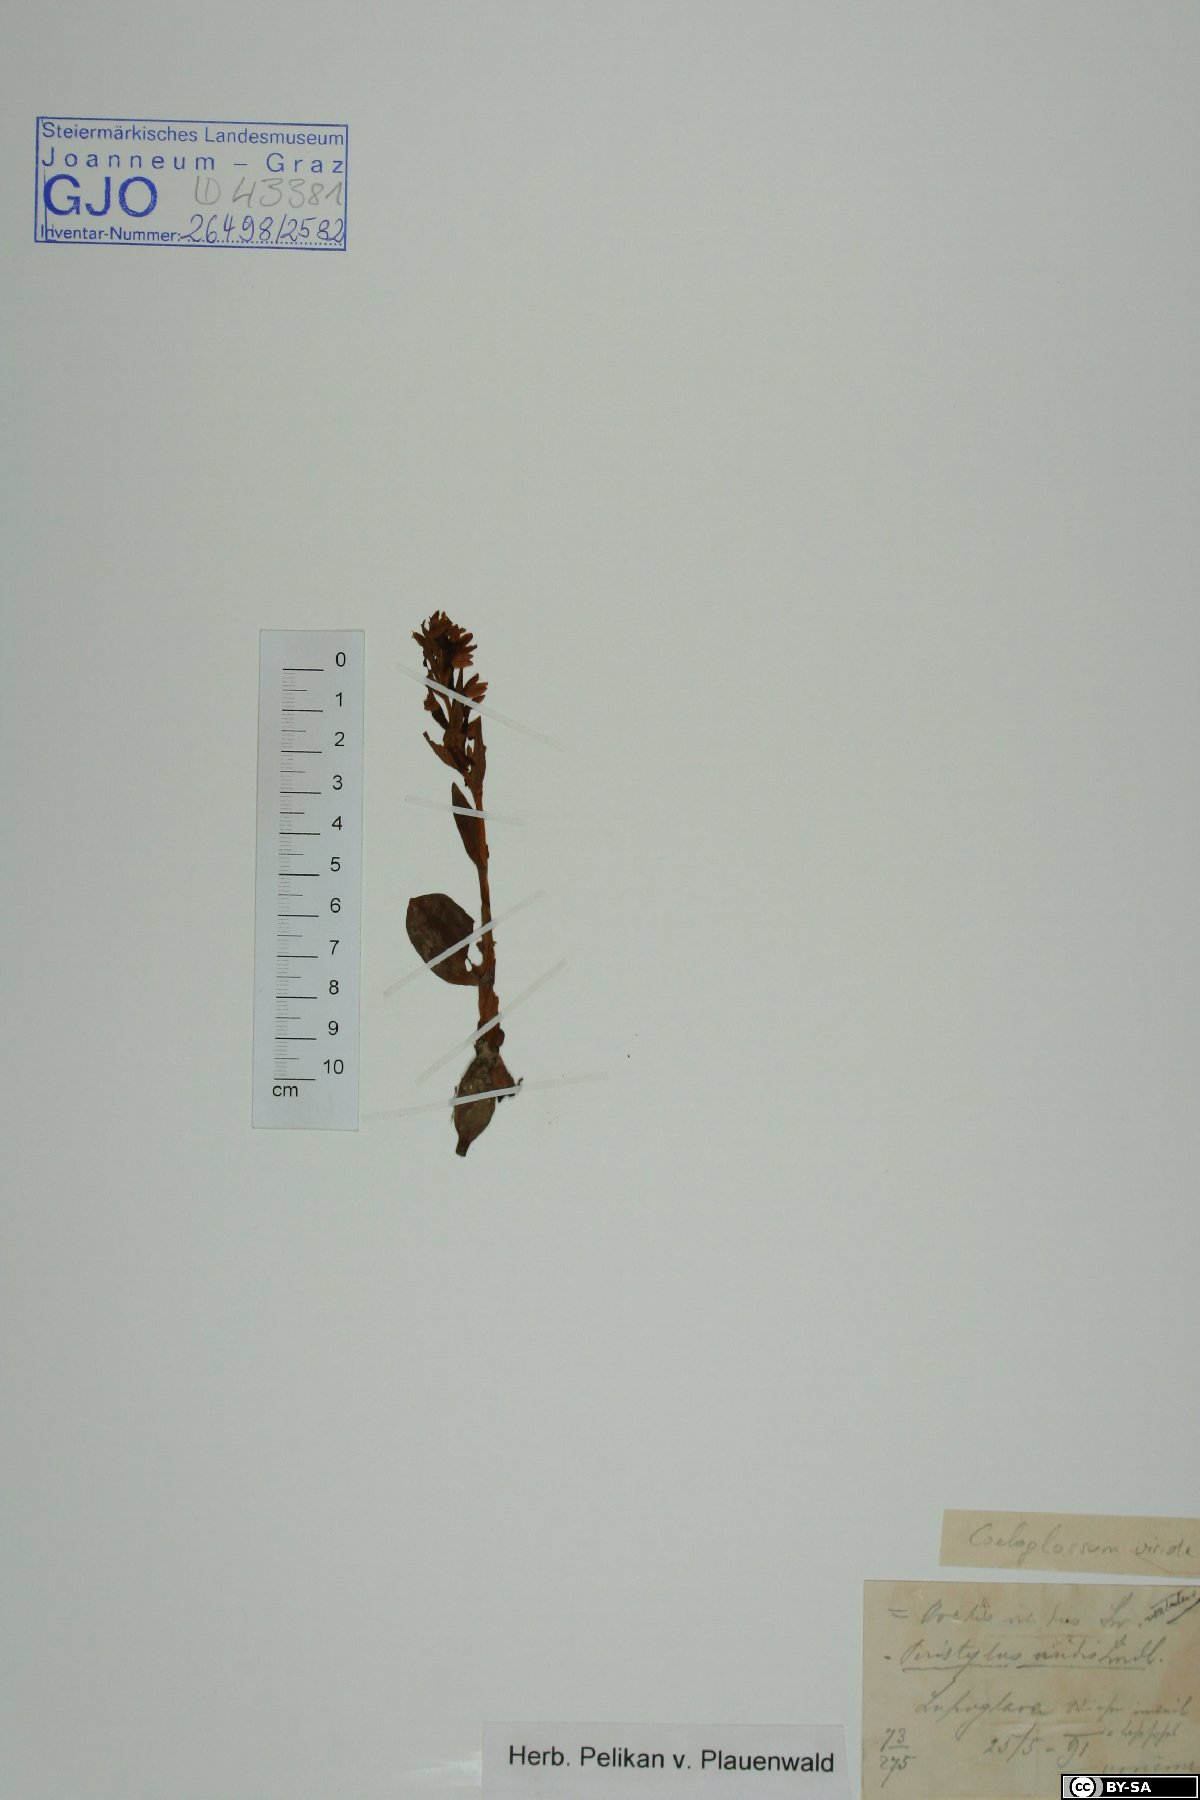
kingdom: Plantae
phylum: Tracheophyta
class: Liliopsida
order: Asparagales
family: Orchidaceae
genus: Dactylorhiza
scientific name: Dactylorhiza viridis
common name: Longbract frog orchid
